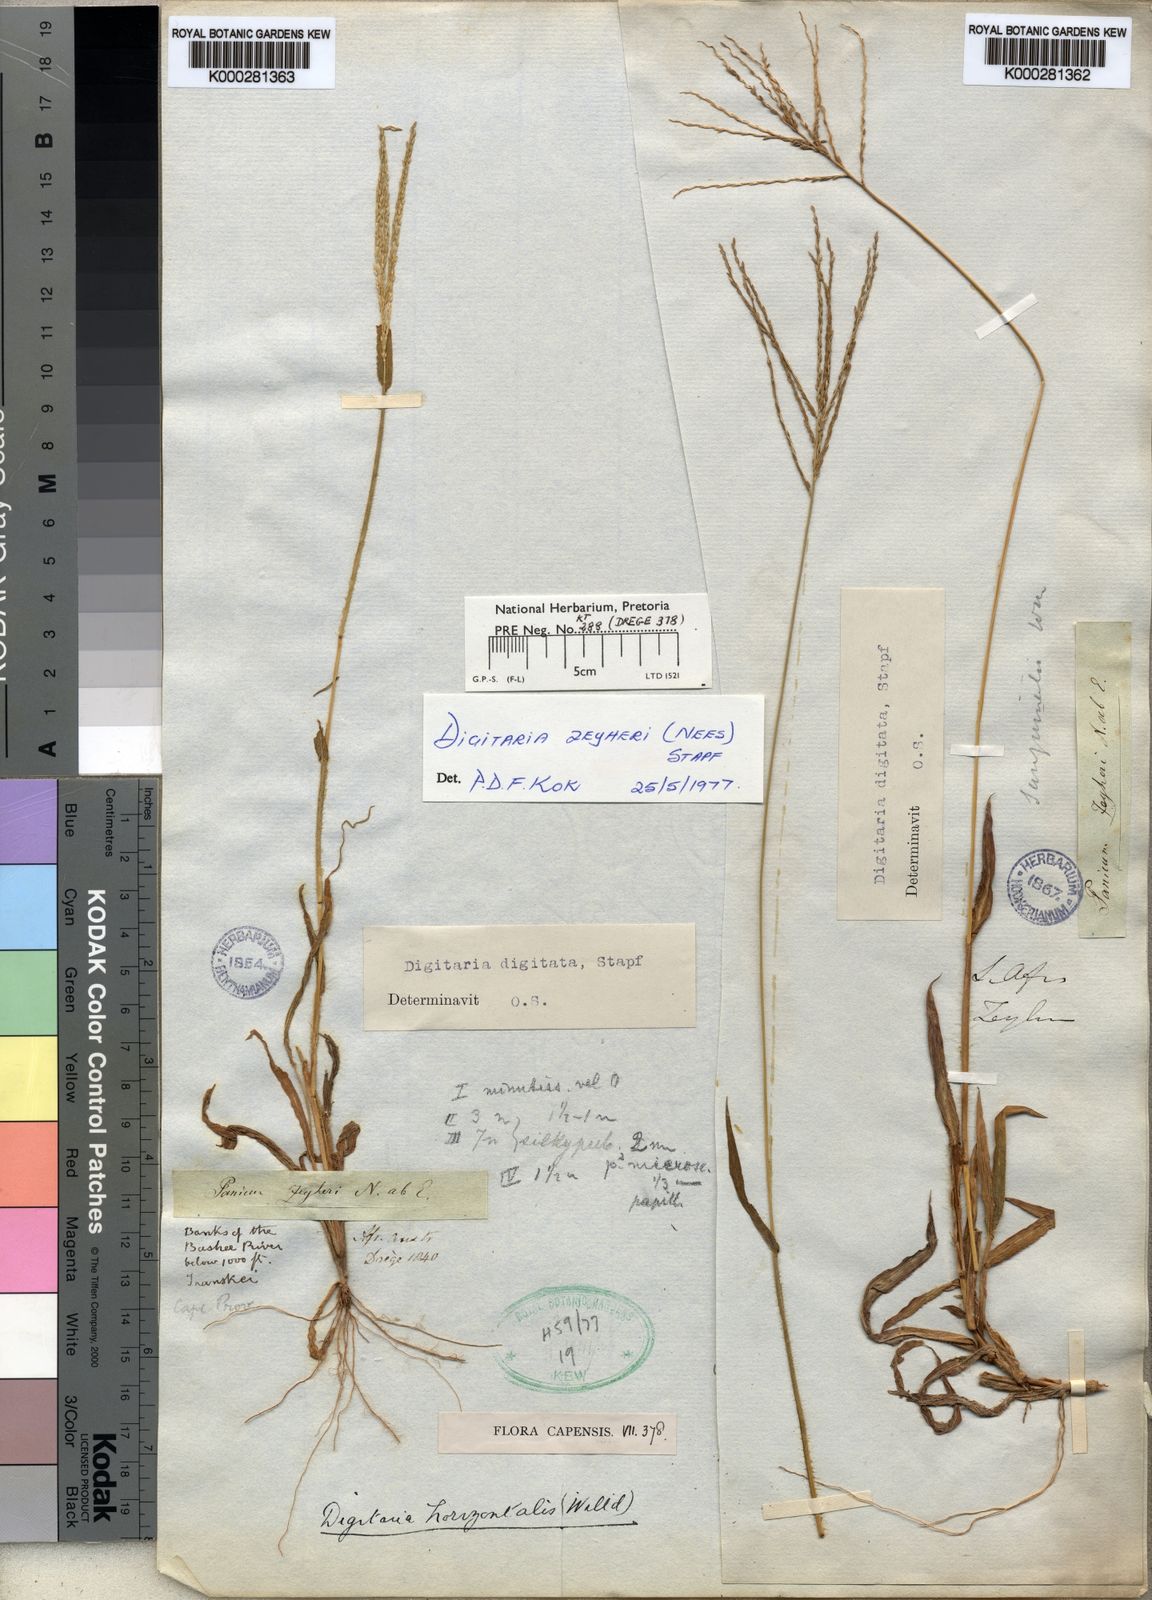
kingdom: Plantae
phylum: Tracheophyta
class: Liliopsida
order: Poales
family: Poaceae
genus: Digitaria
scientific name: Digitaria velutina
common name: Long-plume finger grass
